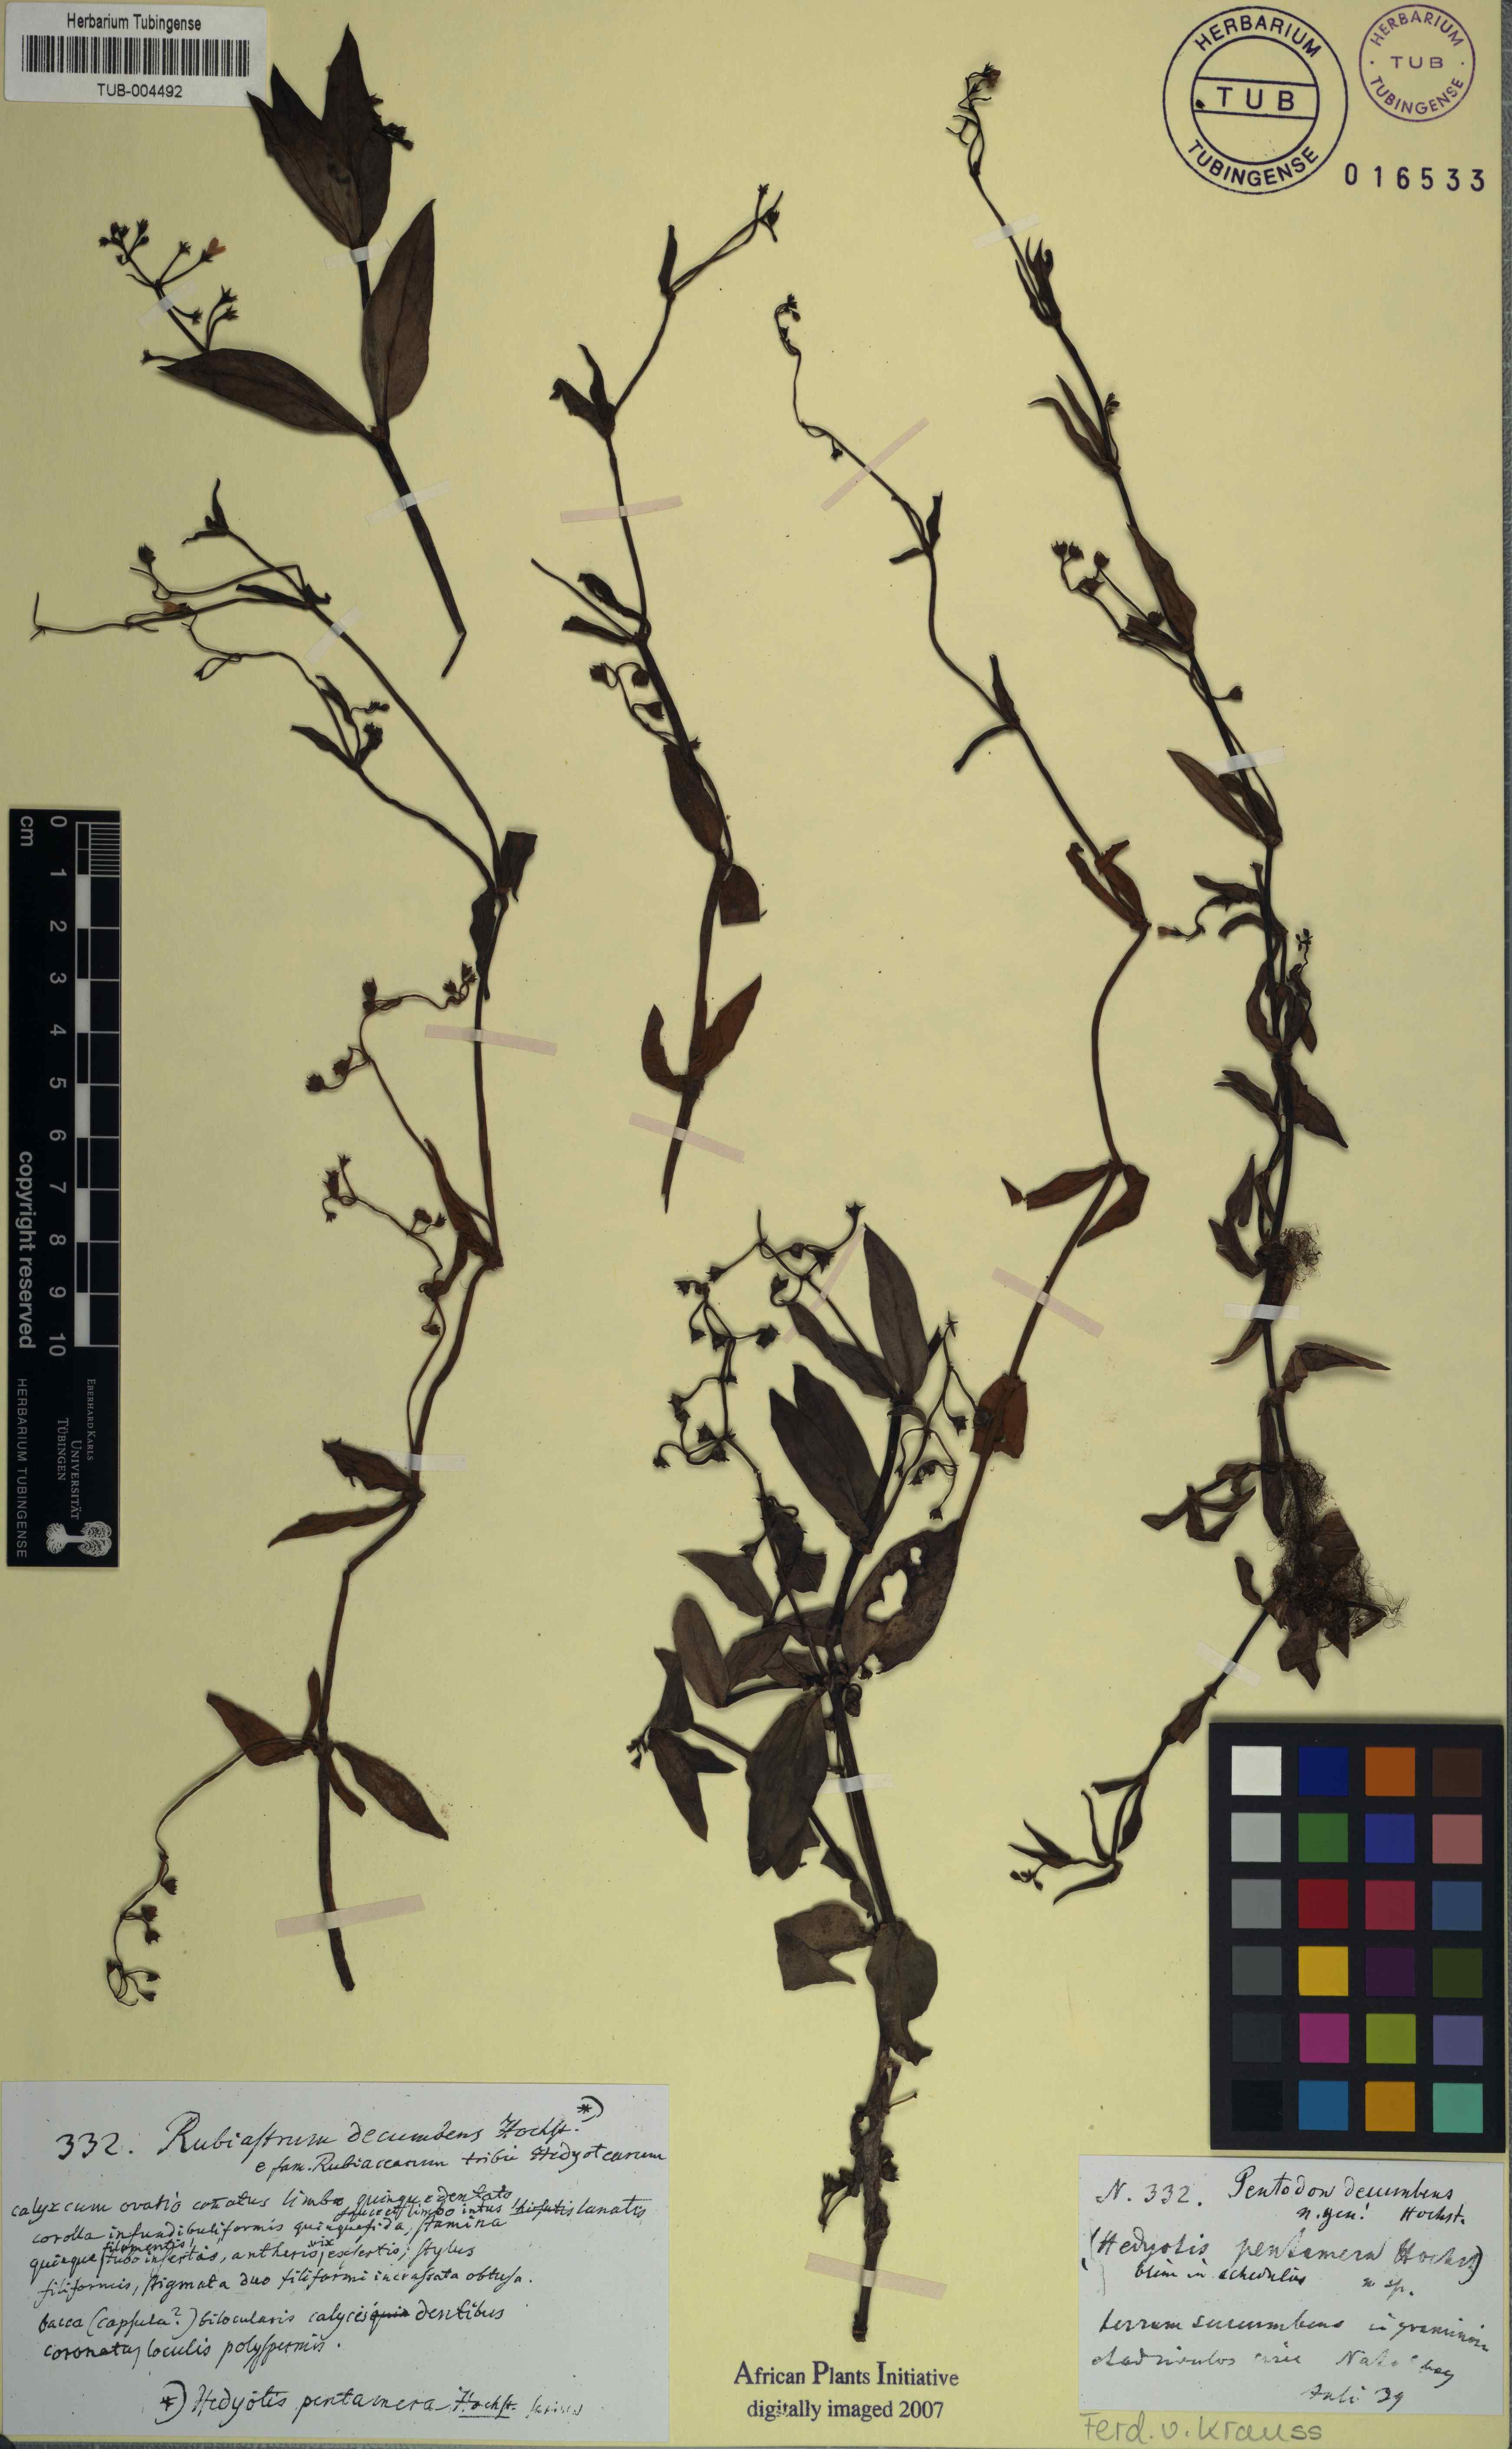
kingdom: Plantae
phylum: Tracheophyta
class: Magnoliopsida
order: Gentianales
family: Rubiaceae
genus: Oldenlandia
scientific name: Oldenlandia affinis
